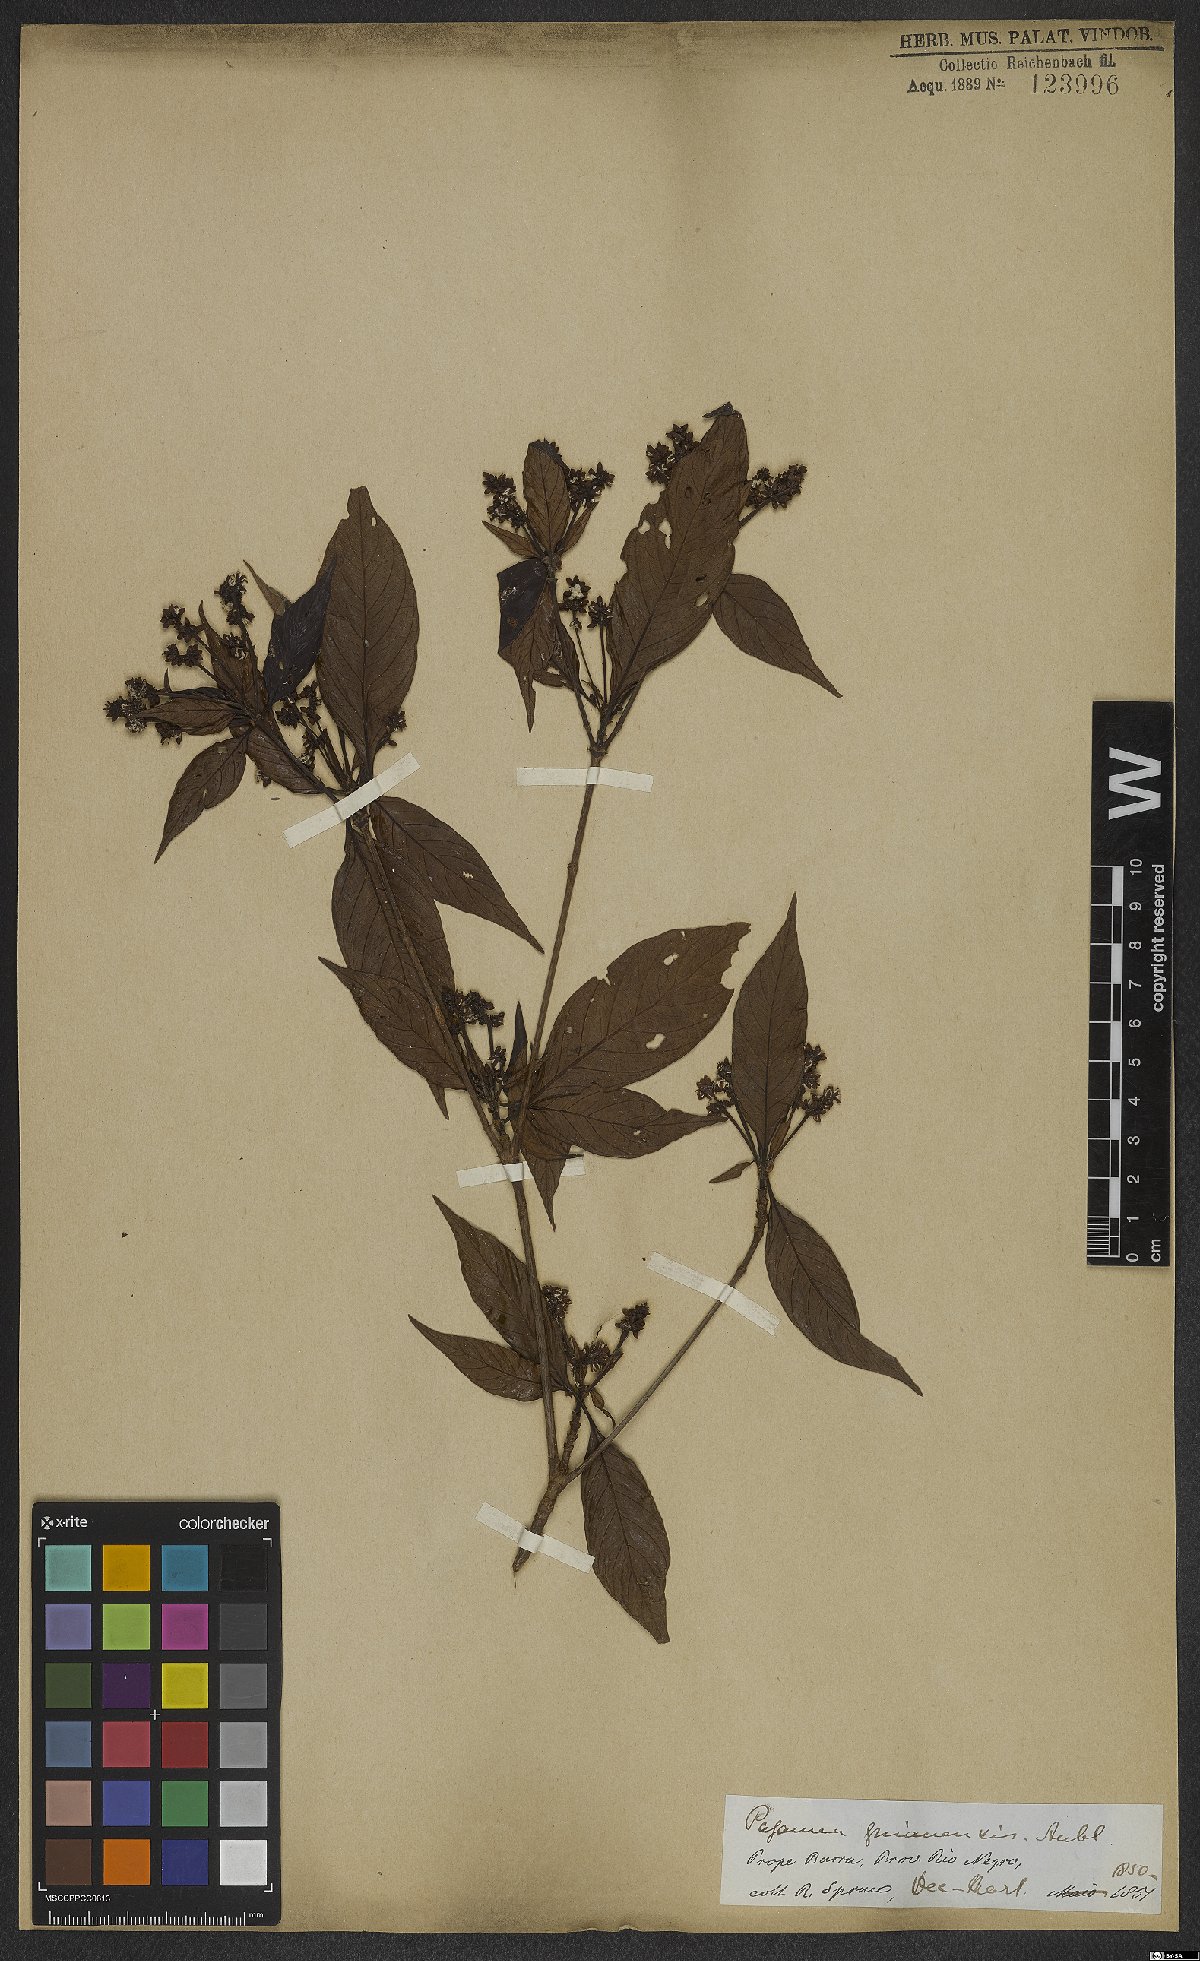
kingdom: Plantae
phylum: Tracheophyta
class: Magnoliopsida
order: Gentianales
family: Rubiaceae
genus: Pagamea
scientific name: Pagamea guianensis
